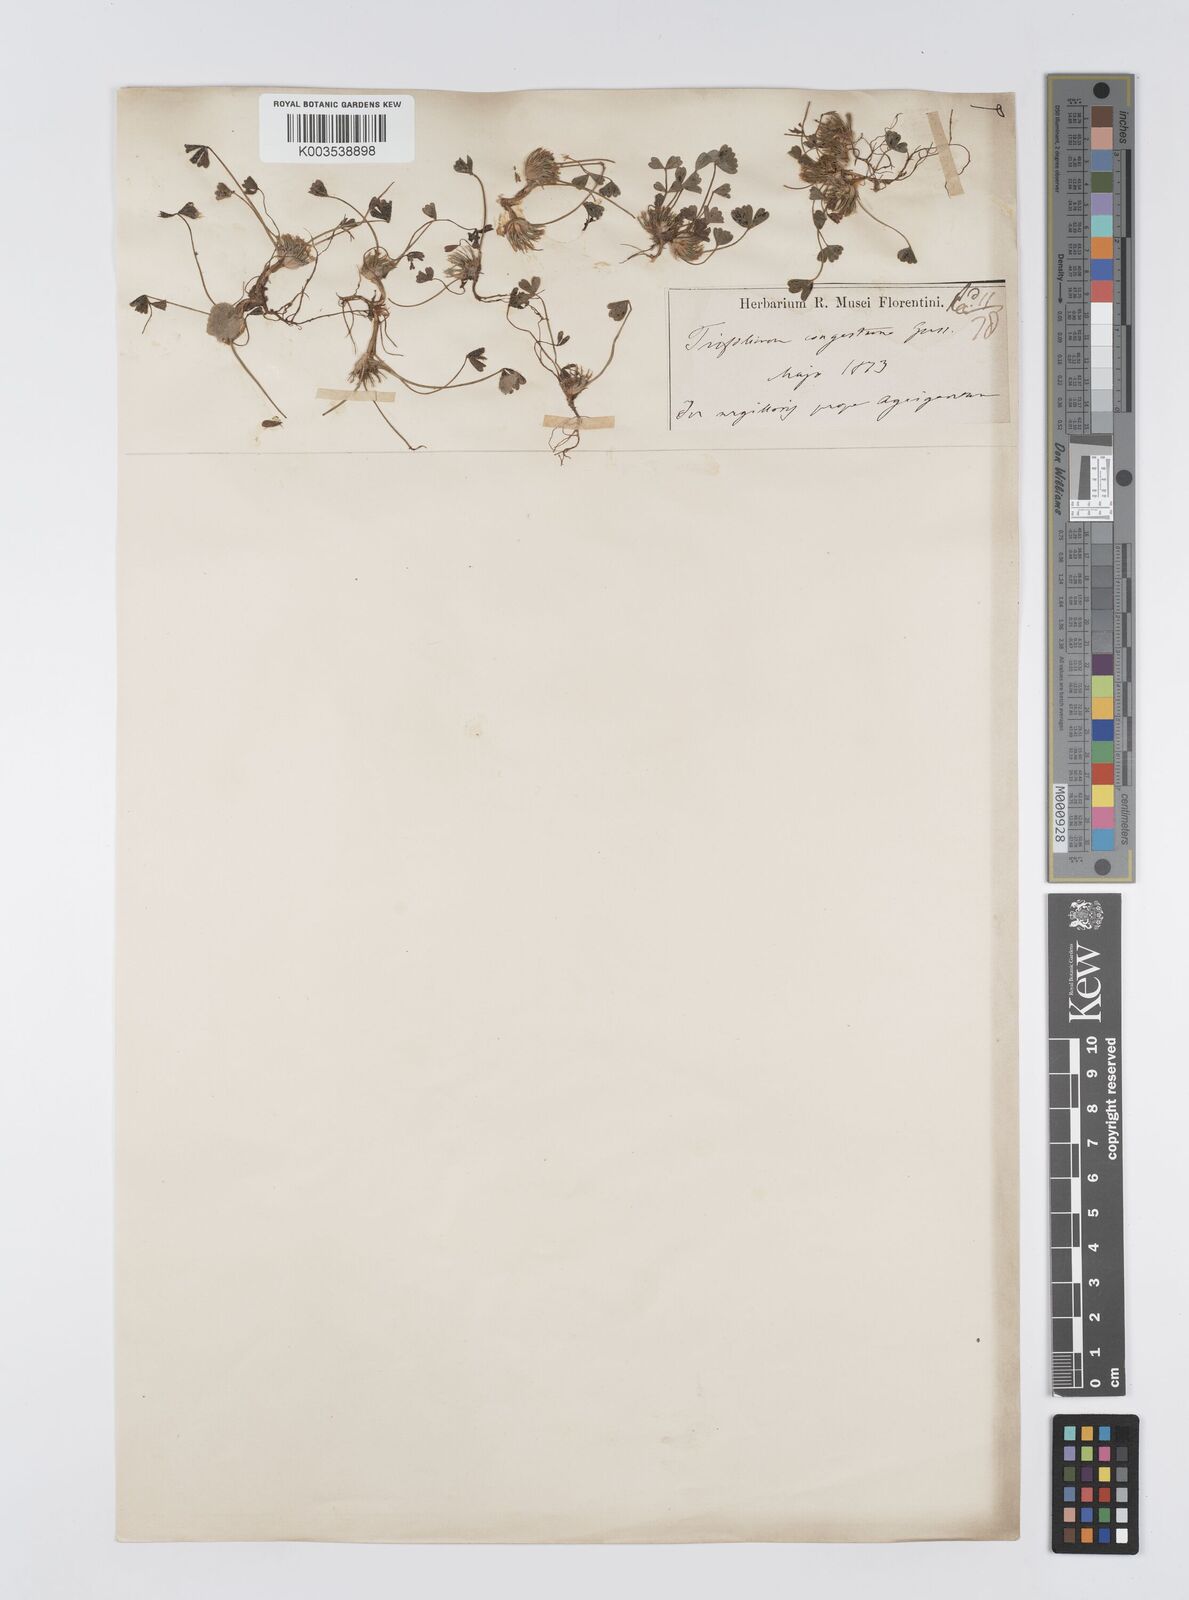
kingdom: Plantae
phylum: Tracheophyta
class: Magnoliopsida
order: Fabales
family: Fabaceae
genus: Trifolium
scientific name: Trifolium fragiferum
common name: Strawberry clover
